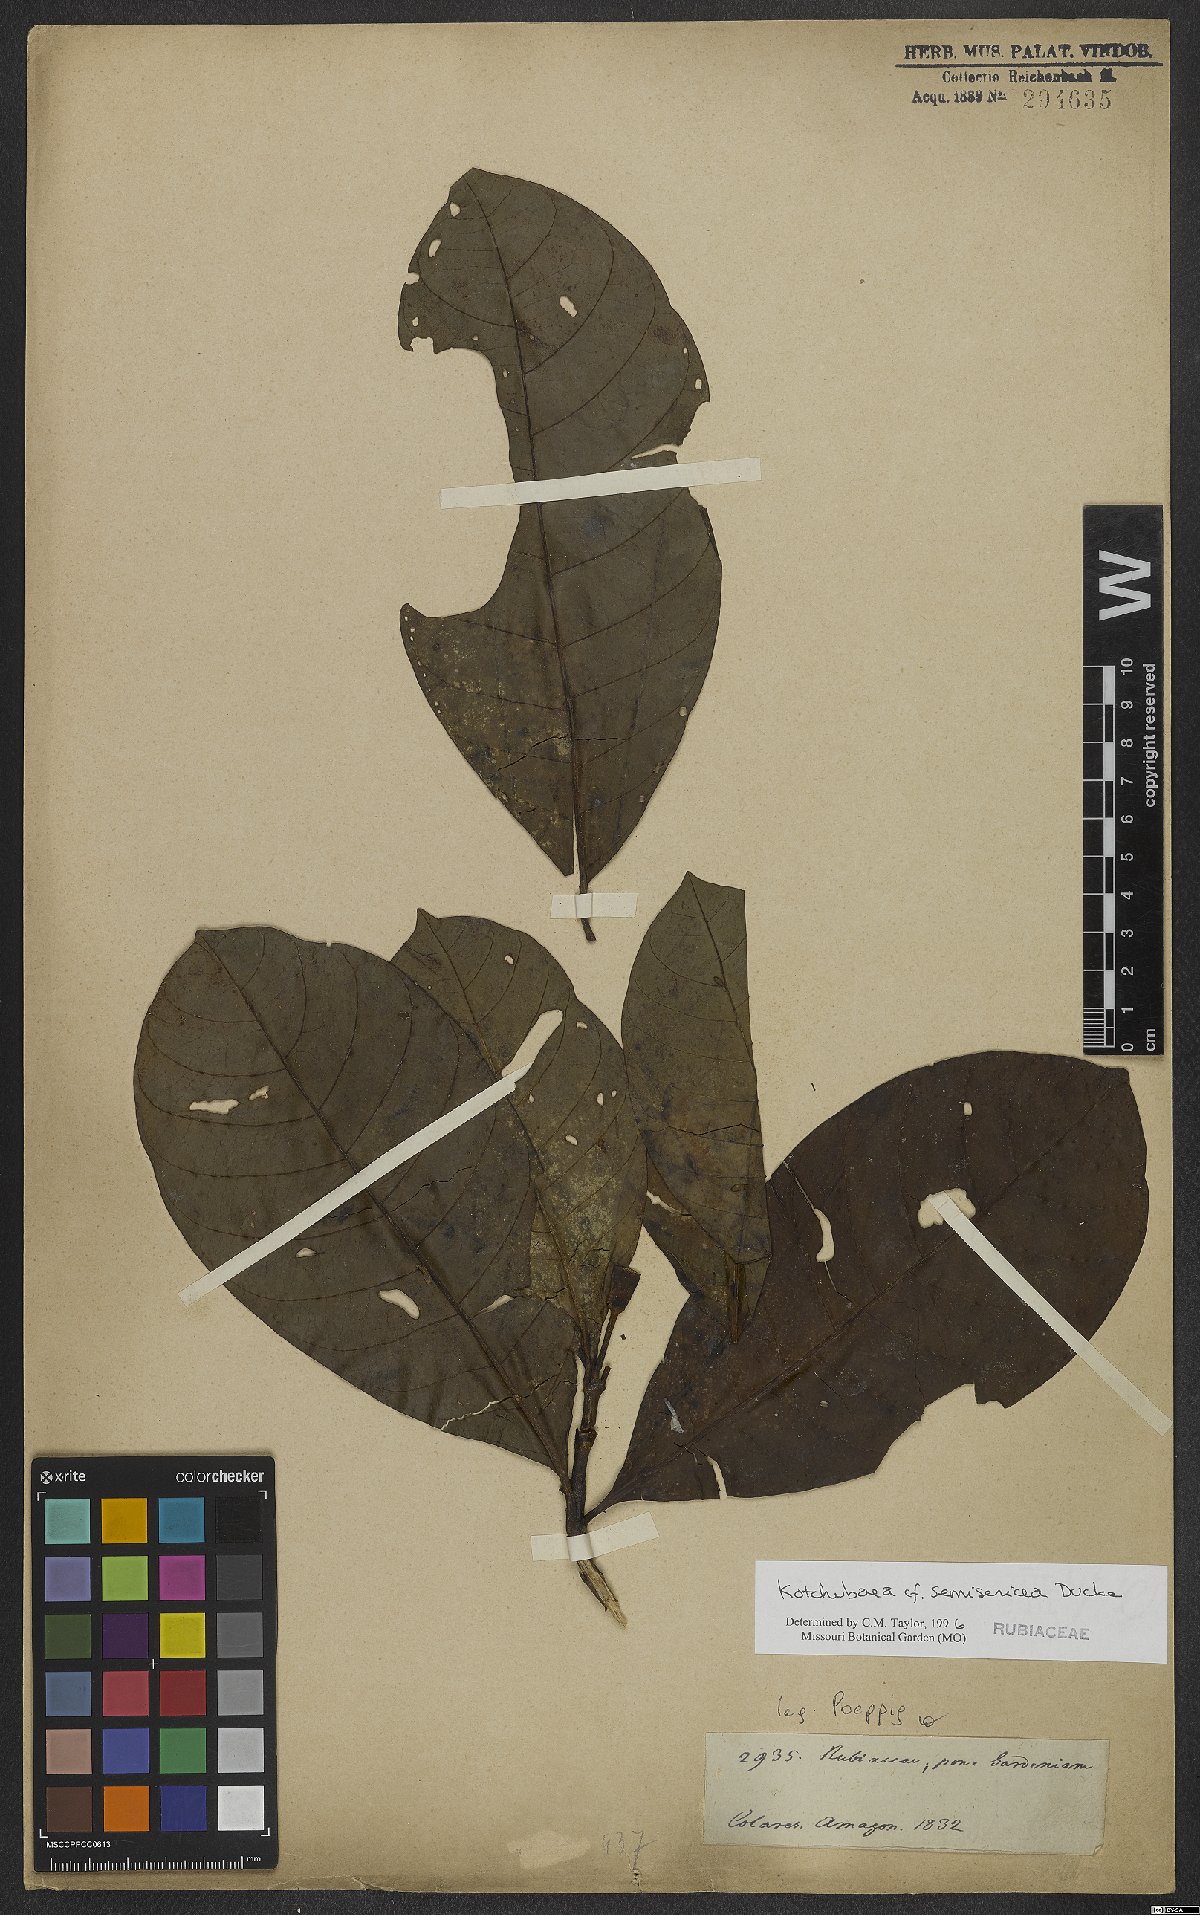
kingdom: Plantae
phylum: Tracheophyta
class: Magnoliopsida
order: Gentianales
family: Rubiaceae
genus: Kutchubaea
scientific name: Kutchubaea semisericea
